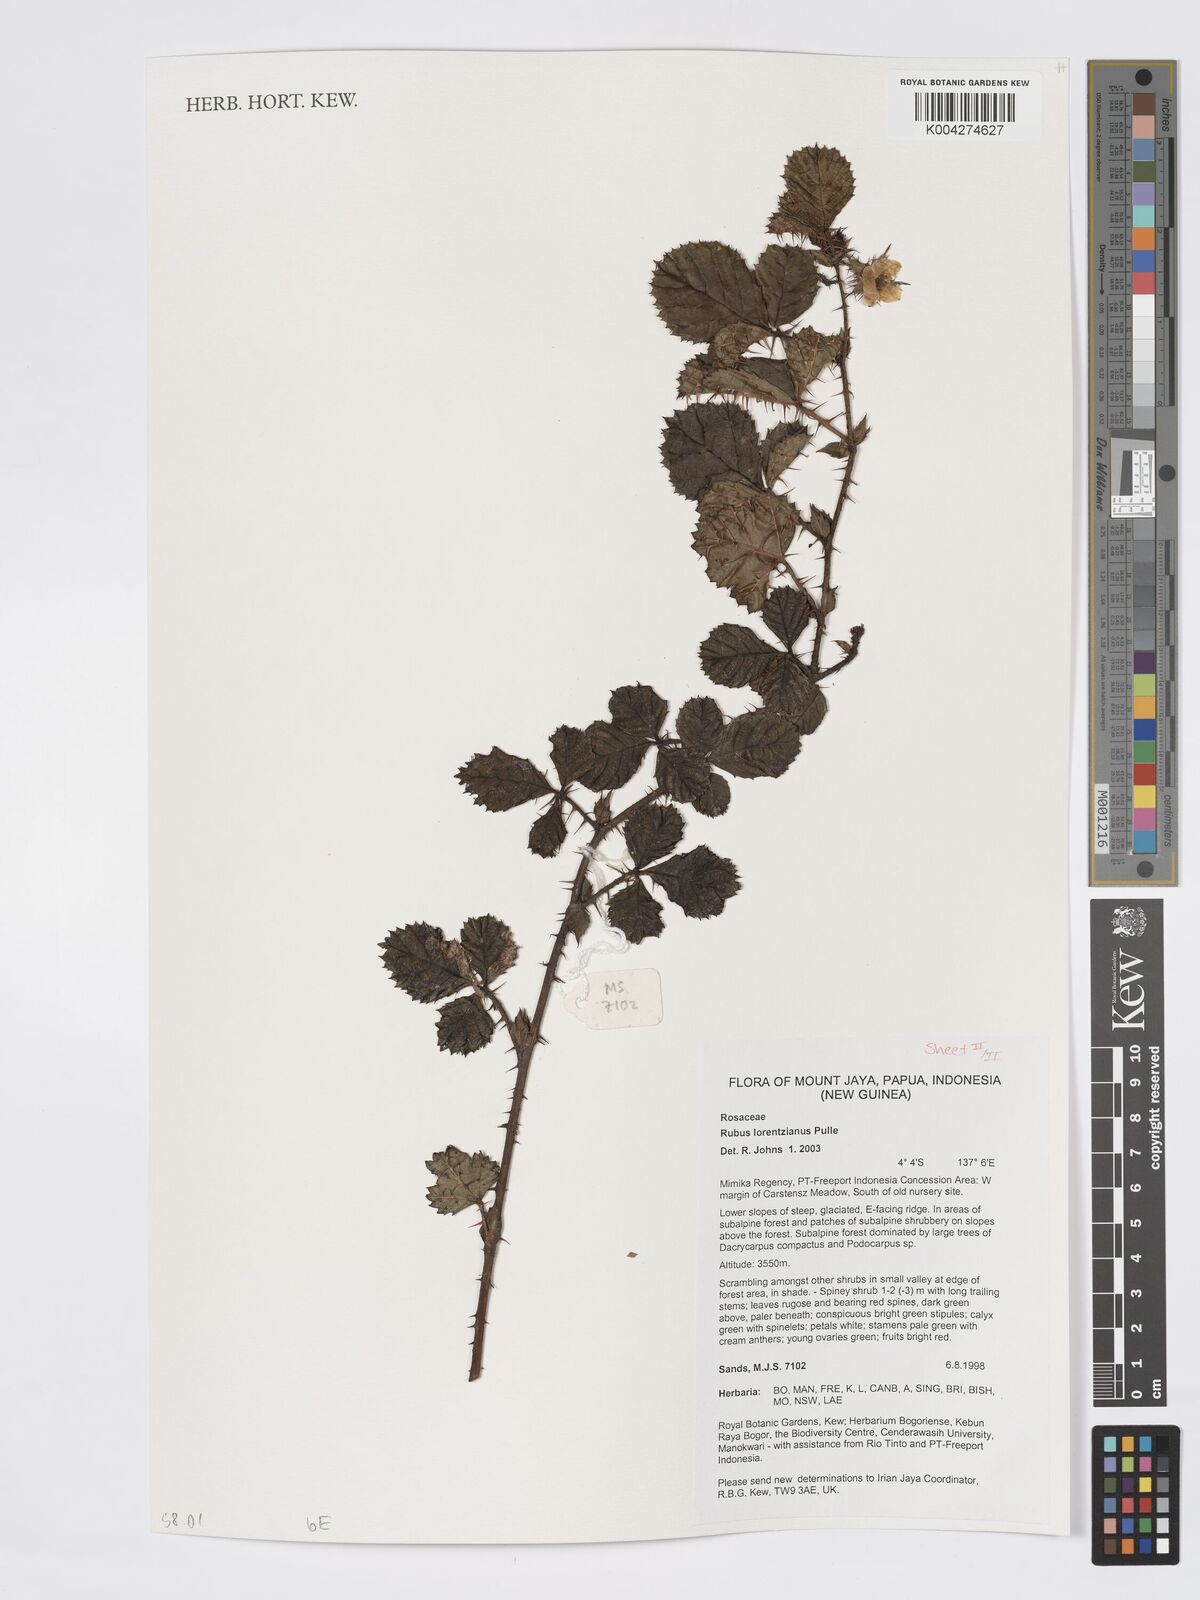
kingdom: Plantae
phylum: Tracheophyta
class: Magnoliopsida
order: Rosales
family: Rosaceae
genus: Rubus
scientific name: Rubus lorentzianus
